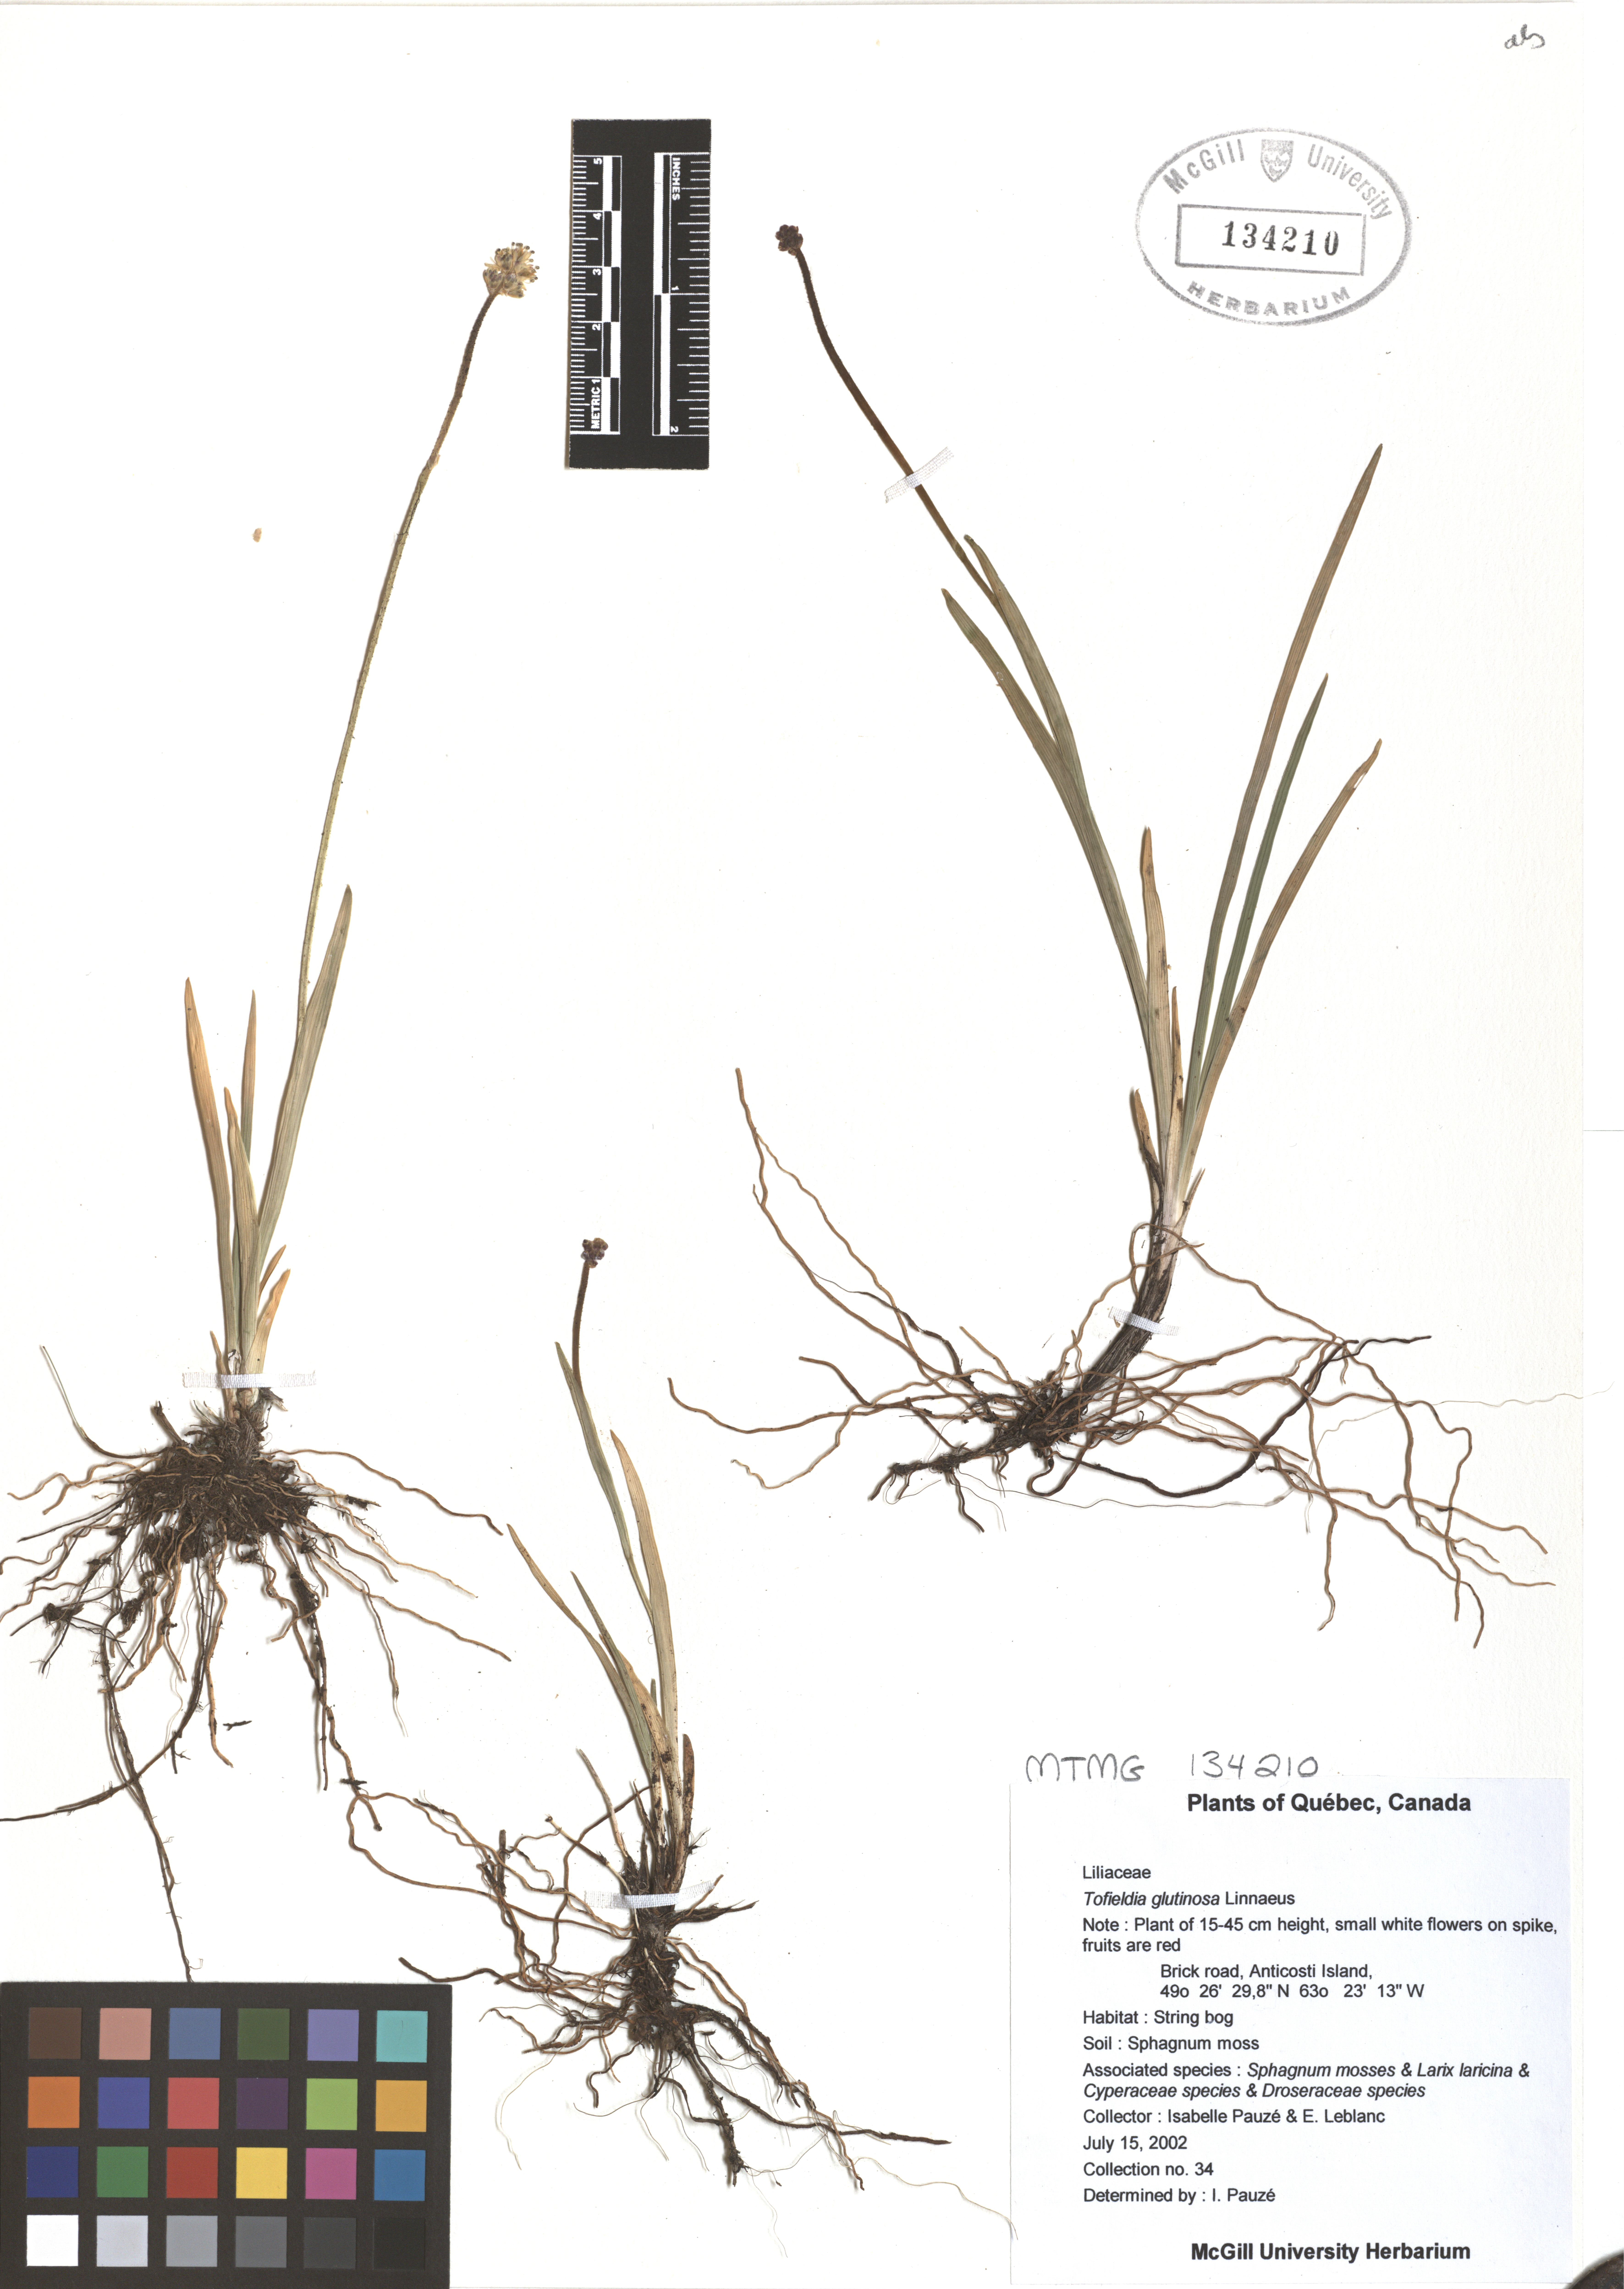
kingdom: Plantae
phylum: Tracheophyta
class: Liliopsida
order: Alismatales
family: Tofieldiaceae
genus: Triantha
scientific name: Triantha glutinosa
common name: Glutinous tofieldia
